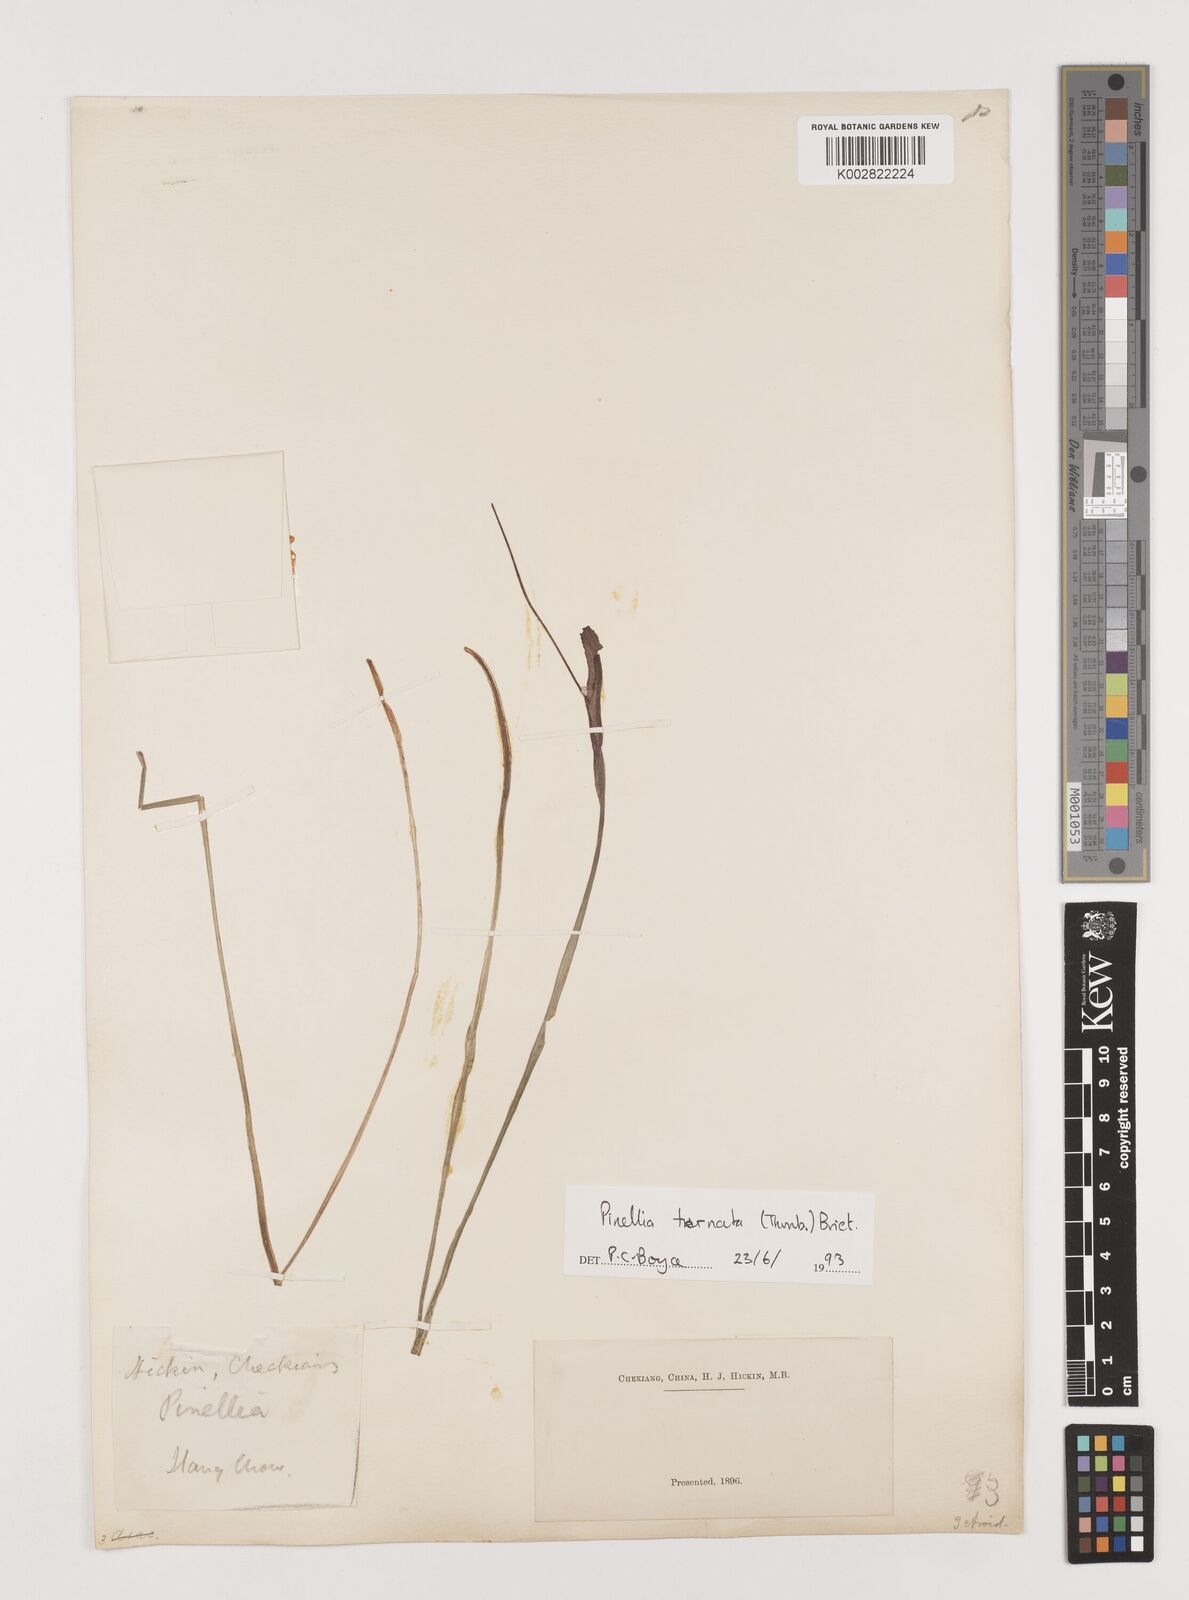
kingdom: Plantae
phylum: Tracheophyta
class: Liliopsida
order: Alismatales
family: Araceae
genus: Pinellia
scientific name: Pinellia ternata
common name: Pinellia
